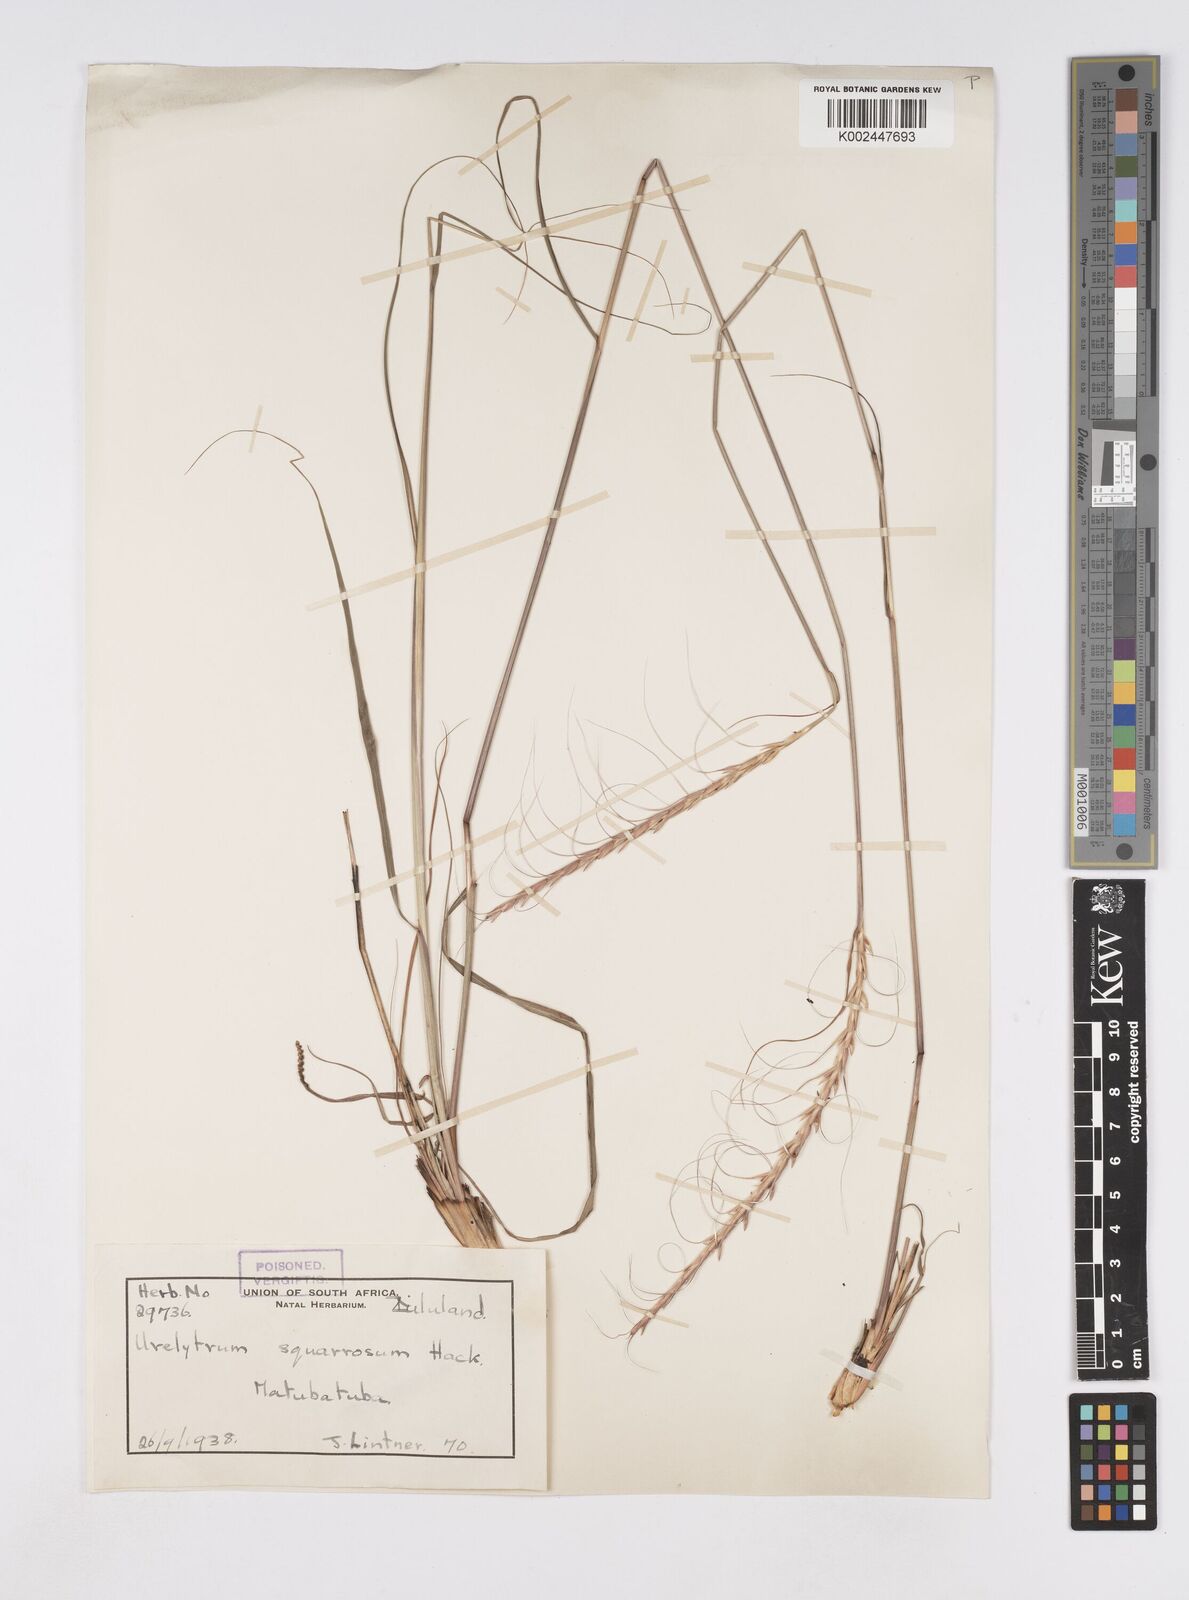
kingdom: Plantae
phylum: Tracheophyta
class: Liliopsida
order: Poales
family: Poaceae
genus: Urelytrum
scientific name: Urelytrum agropyroides
